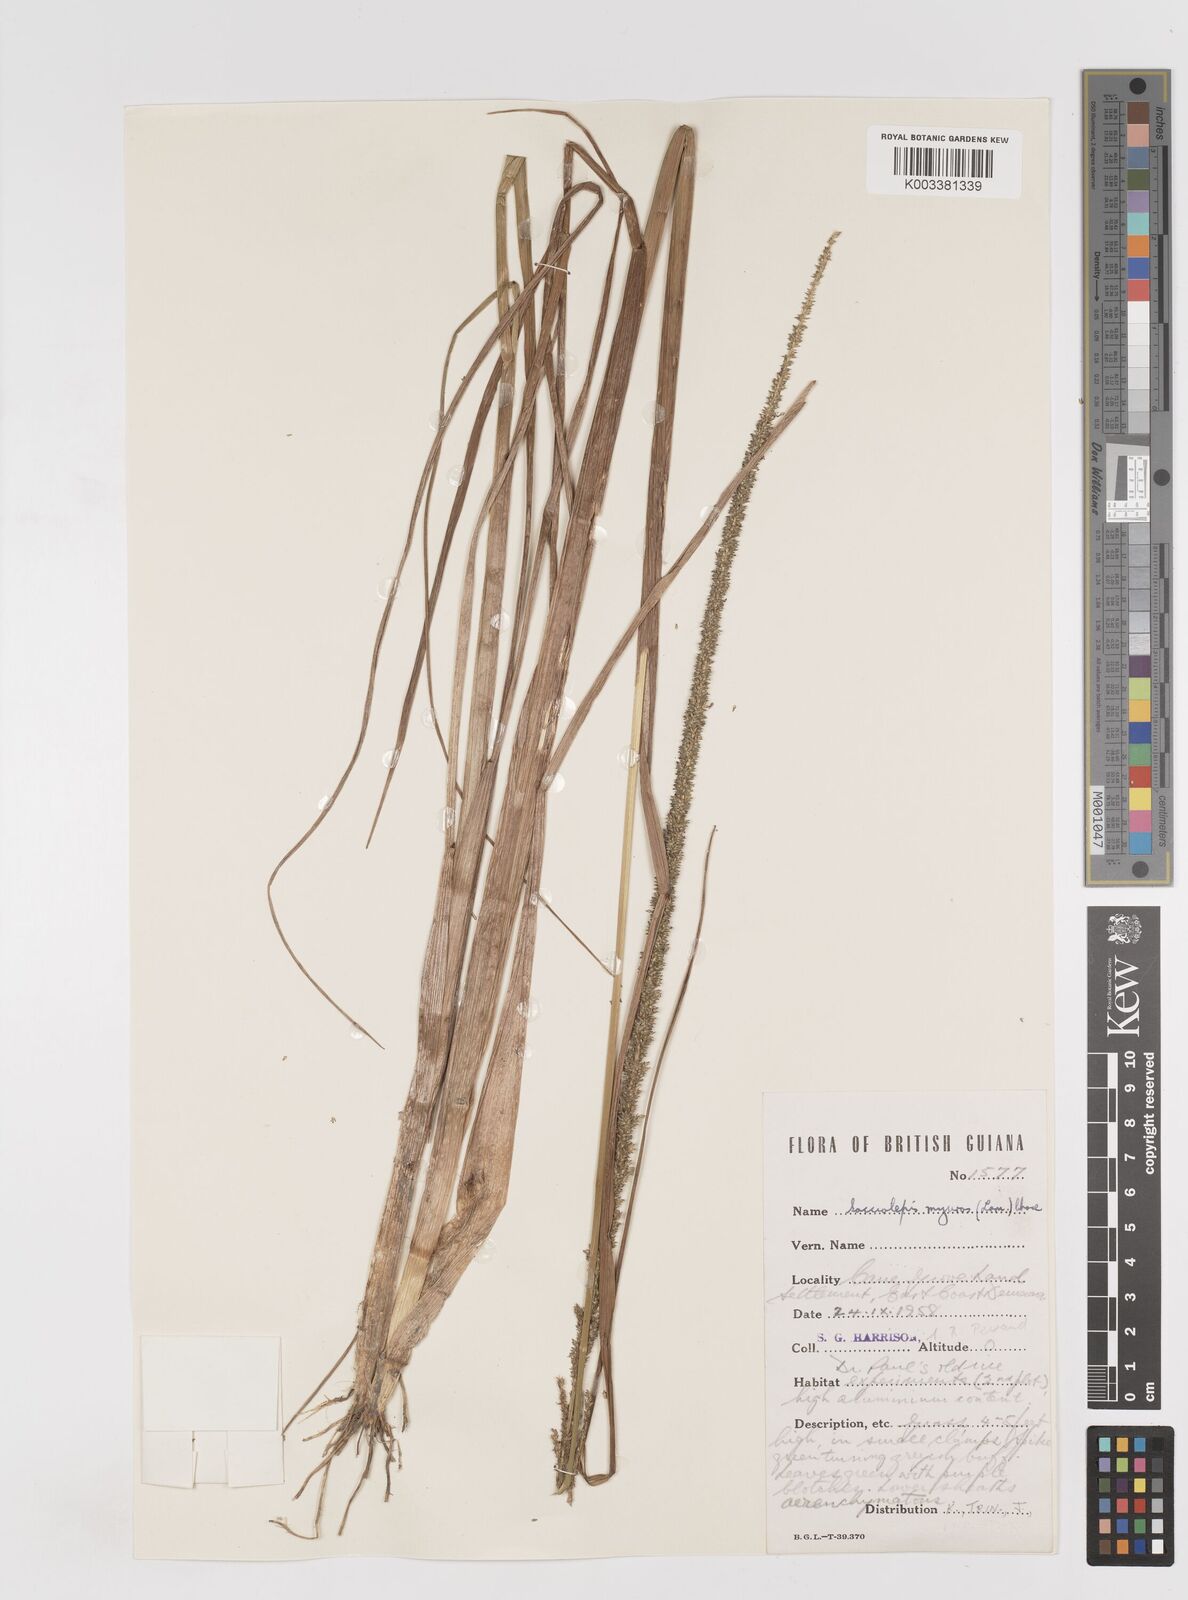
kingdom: Plantae
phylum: Tracheophyta
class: Liliopsida
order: Poales
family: Poaceae
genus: Sacciolepis
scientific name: Sacciolepis myuros
